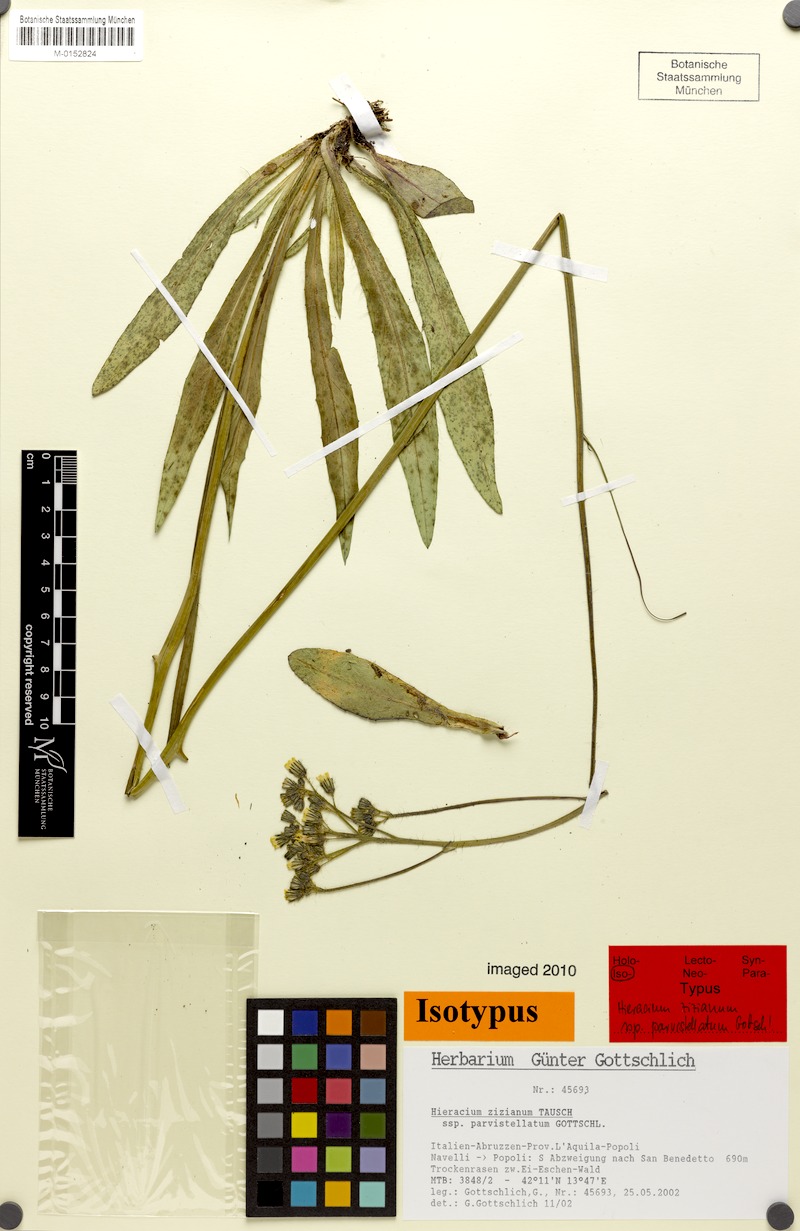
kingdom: Plantae
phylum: Tracheophyta
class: Magnoliopsida
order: Asterales
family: Asteraceae
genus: Pilosella
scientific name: Pilosella ziziana
